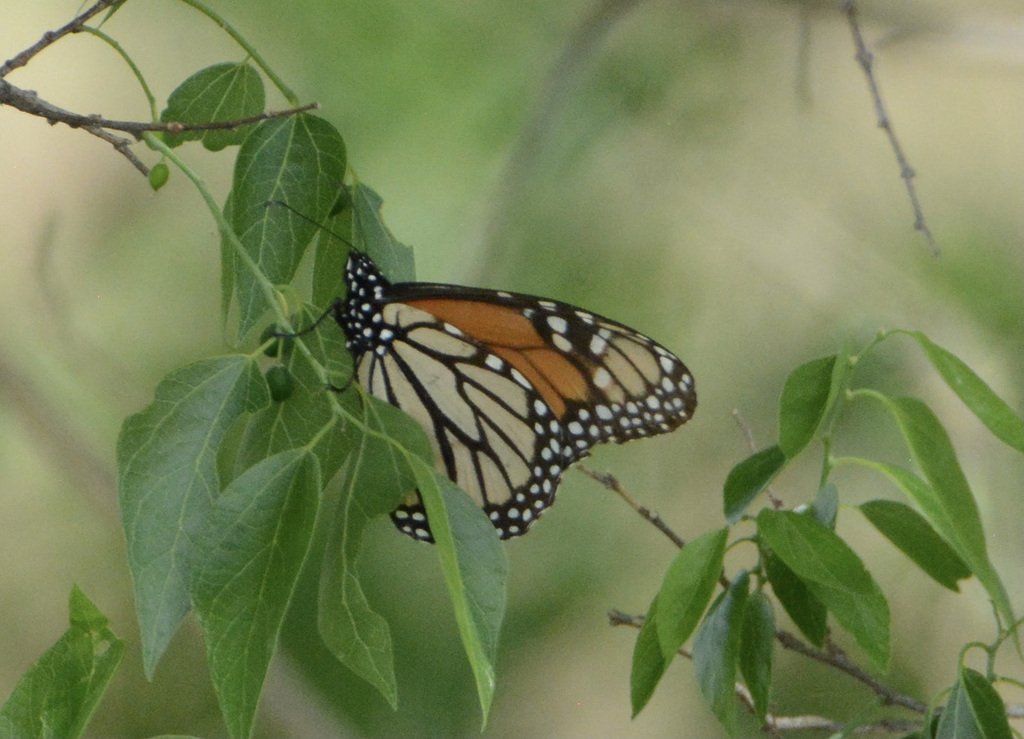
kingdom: Animalia
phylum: Arthropoda
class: Insecta
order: Lepidoptera
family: Nymphalidae
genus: Danaus
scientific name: Danaus plexippus
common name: Monarch
